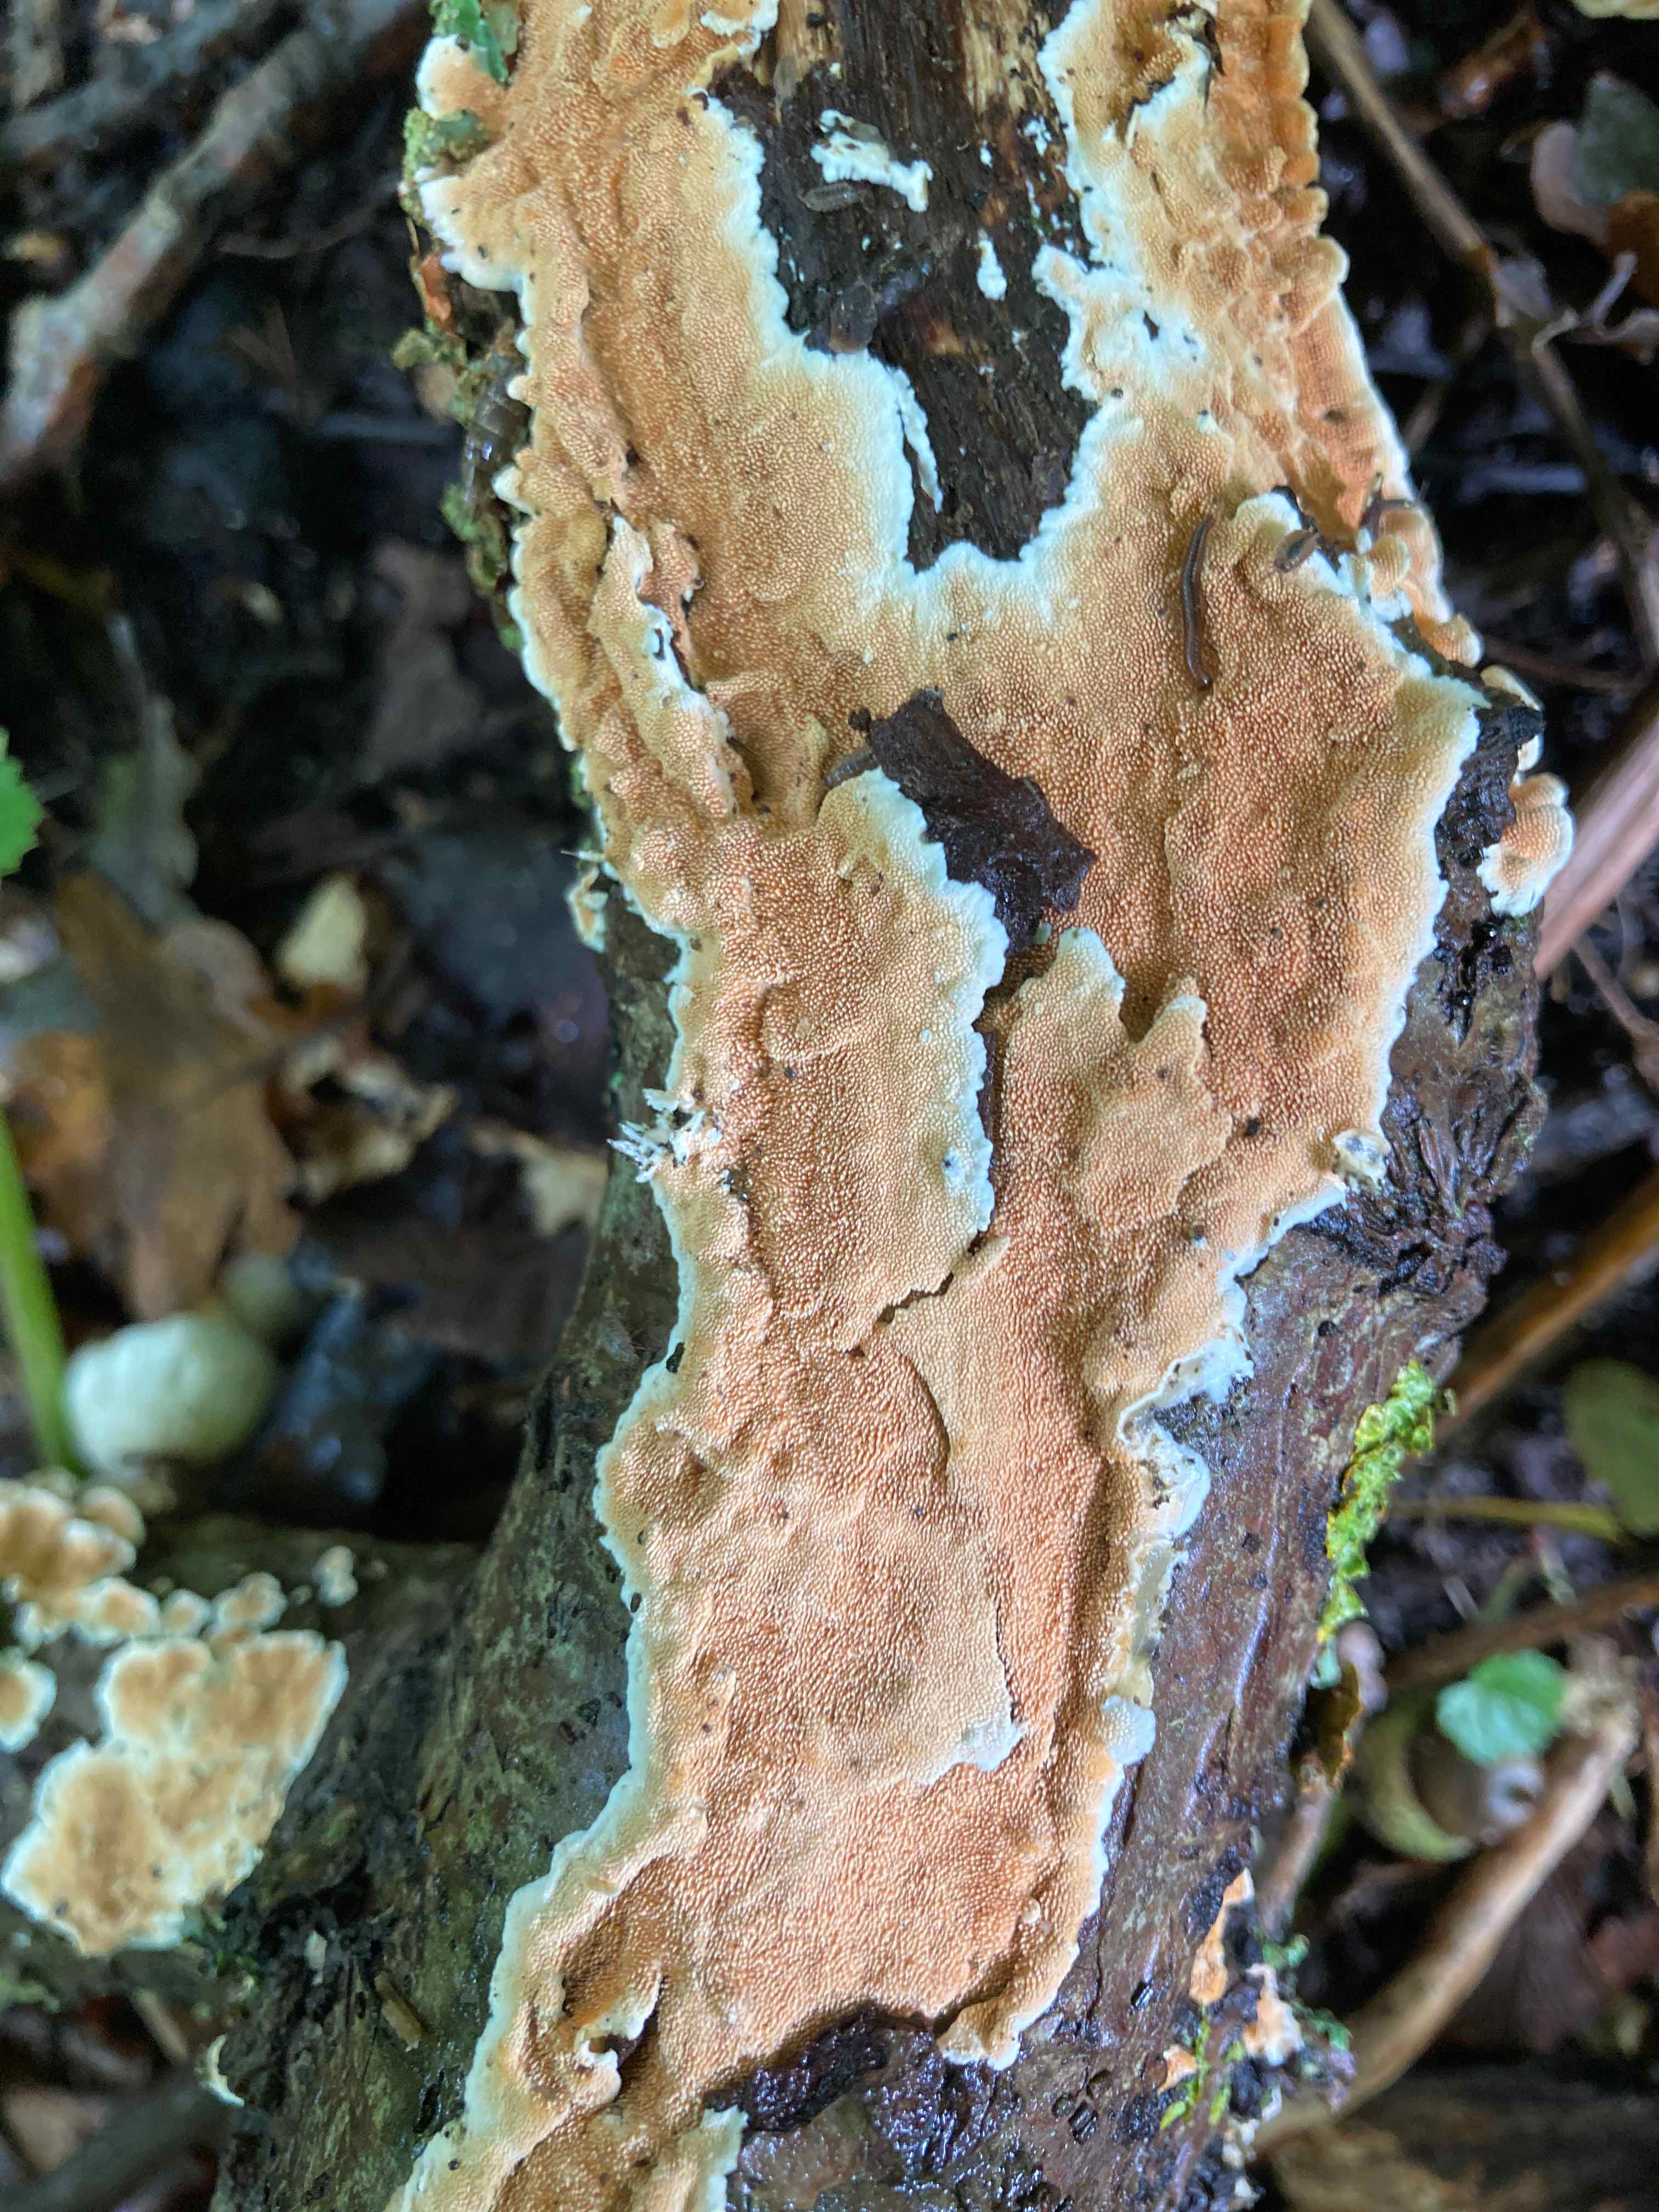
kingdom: Fungi
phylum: Basidiomycota
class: Agaricomycetes
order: Polyporales
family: Steccherinaceae
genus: Steccherinum
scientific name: Steccherinum ochraceum
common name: almindelig skønpig
